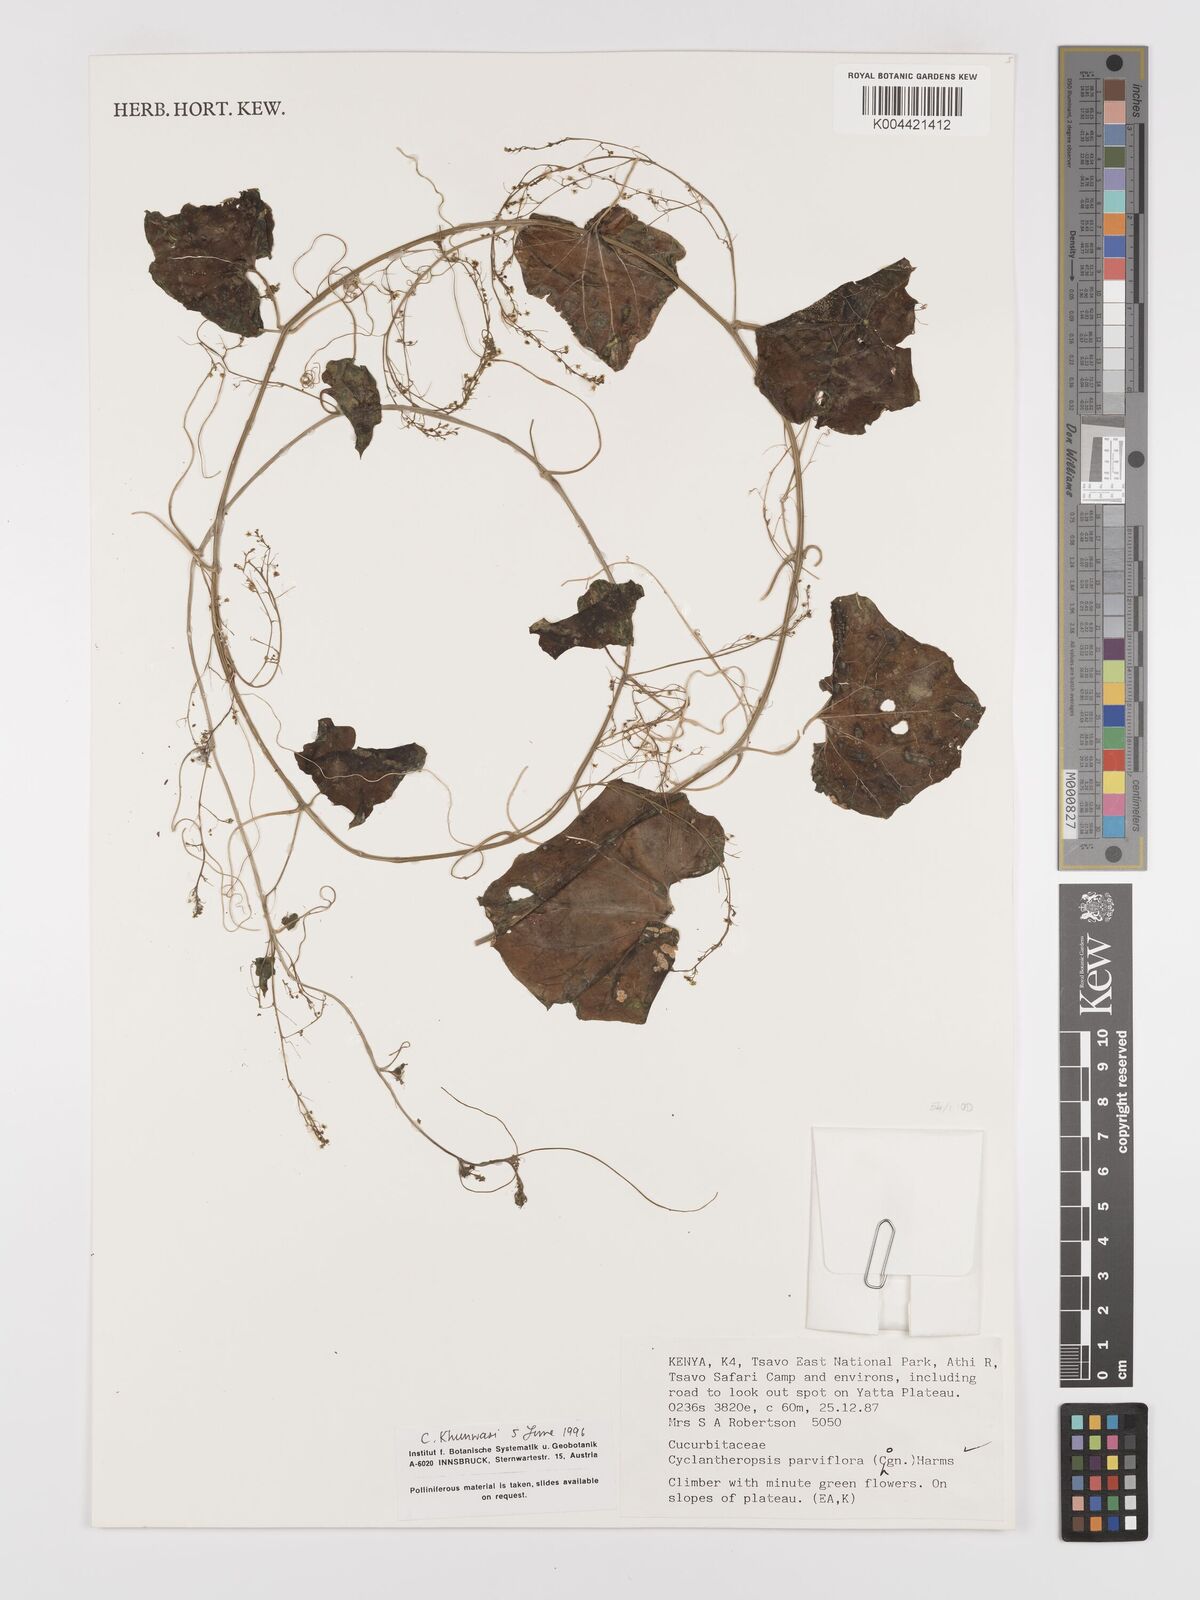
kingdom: Plantae
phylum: Tracheophyta
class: Magnoliopsida
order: Cucurbitales
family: Cucurbitaceae
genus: Cyclantheropsis
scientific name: Cyclantheropsis parviflora
